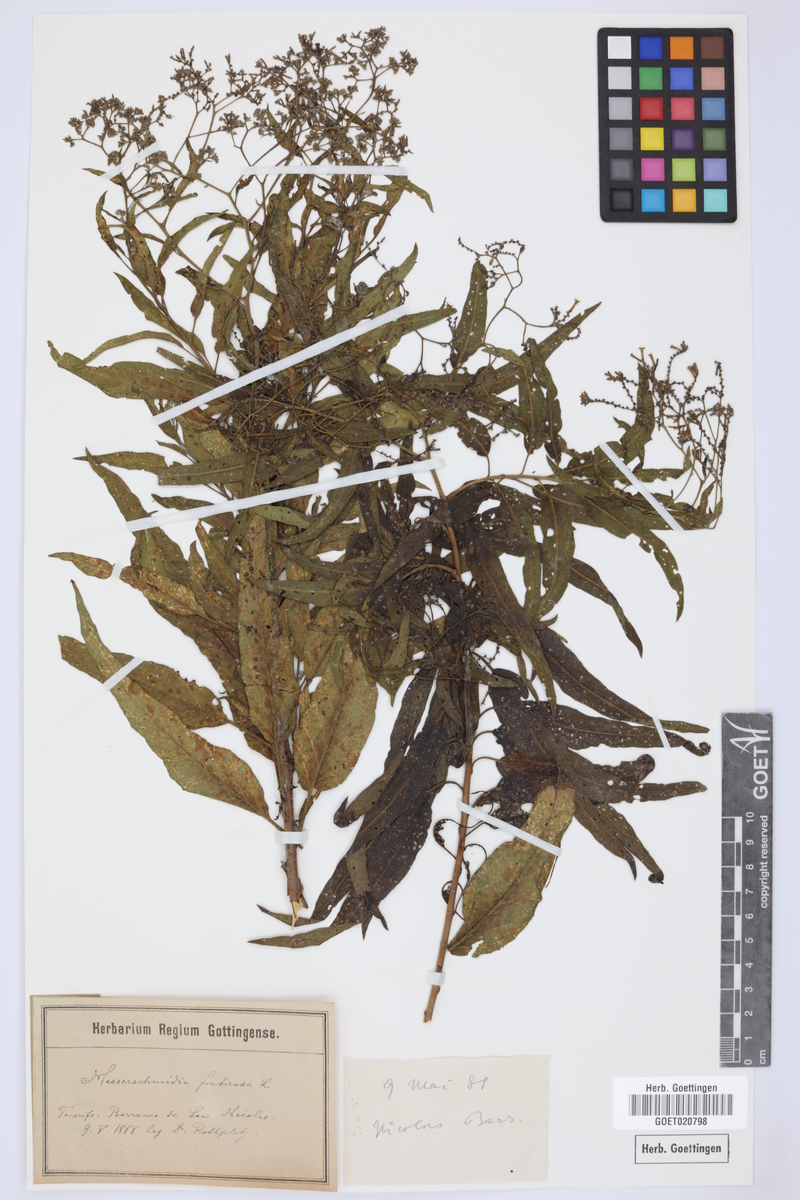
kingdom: Plantae
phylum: Tracheophyta
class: Magnoliopsida
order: Boraginales
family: Heliotropiaceae
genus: Heliotropium
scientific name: Heliotropium messerschmidioides
